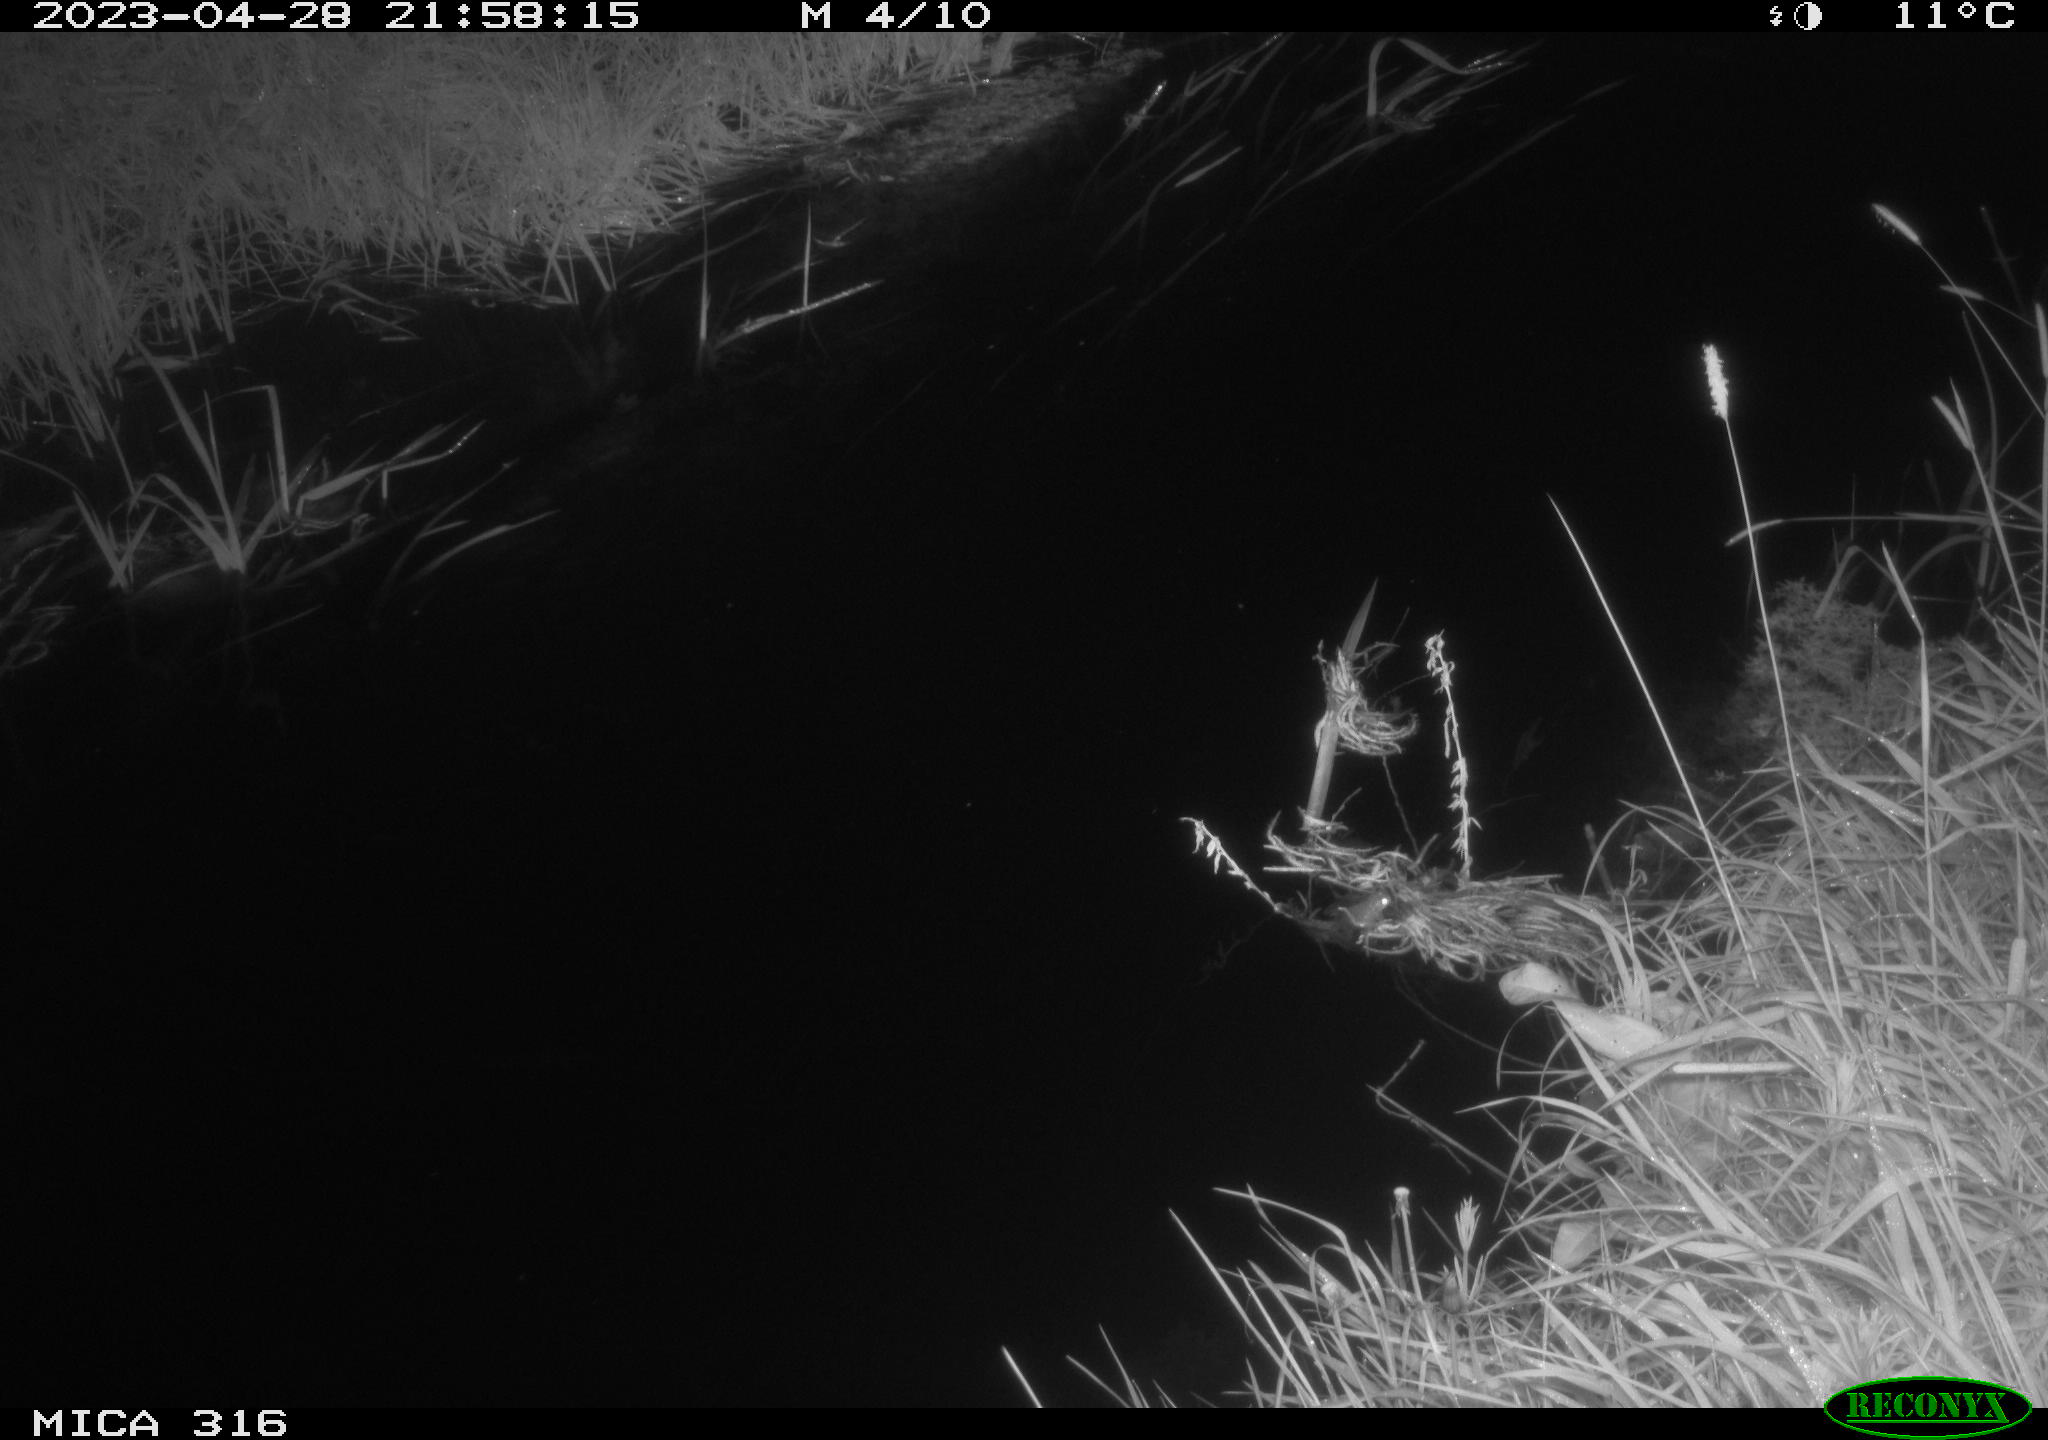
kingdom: Animalia
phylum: Chordata
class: Aves
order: Anseriformes
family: Anatidae
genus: Anas
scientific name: Anas
